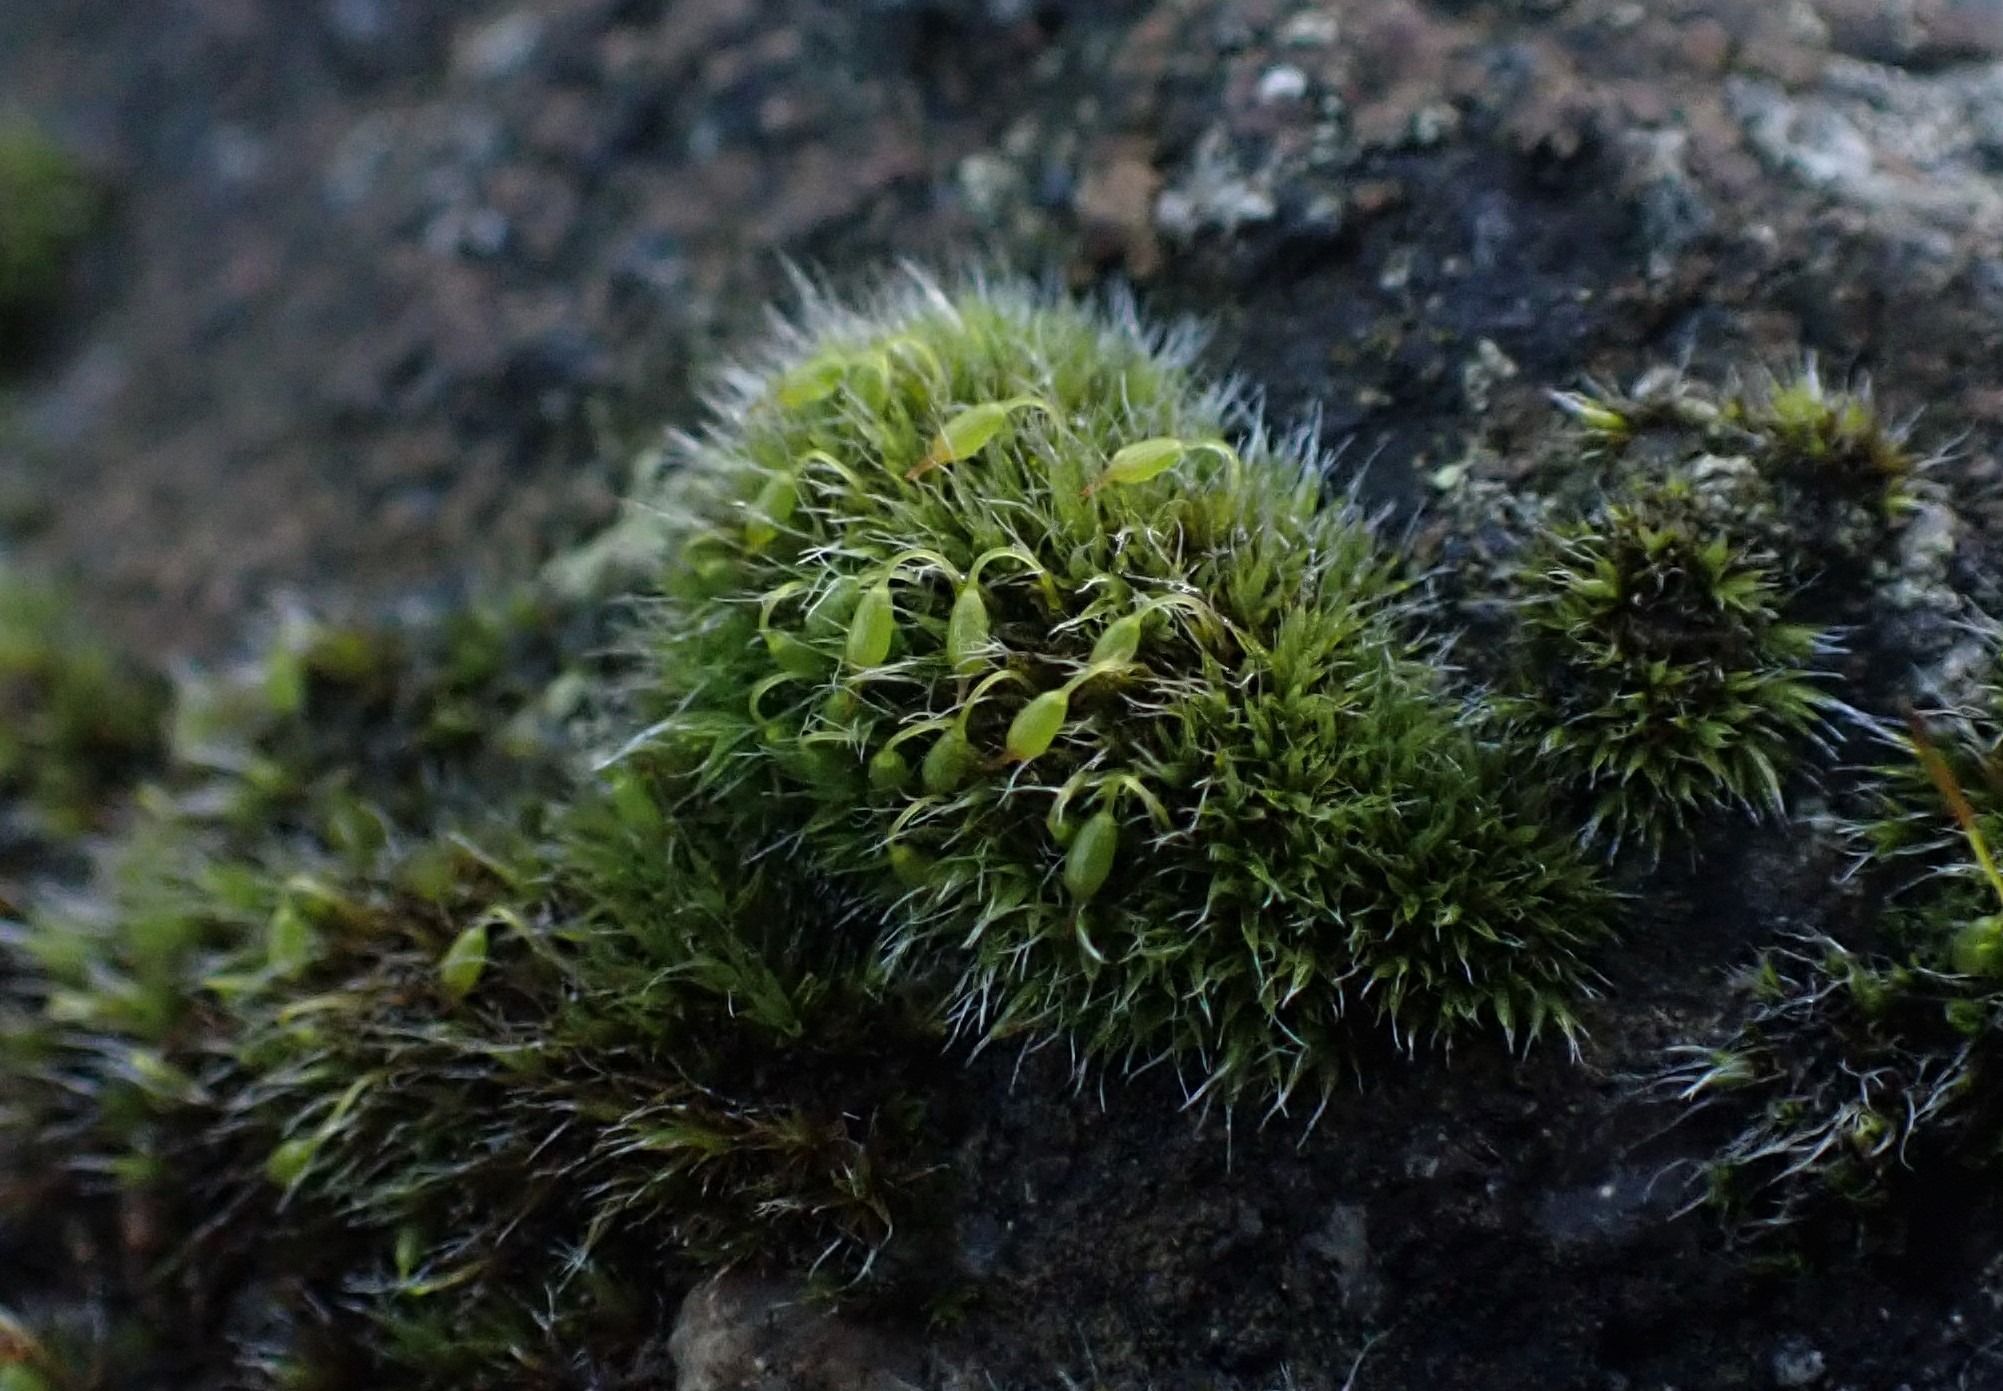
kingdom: Plantae
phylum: Bryophyta
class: Bryopsida
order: Grimmiales
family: Grimmiaceae
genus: Grimmia
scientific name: Grimmia pulvinata
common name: Pude-gråmos
